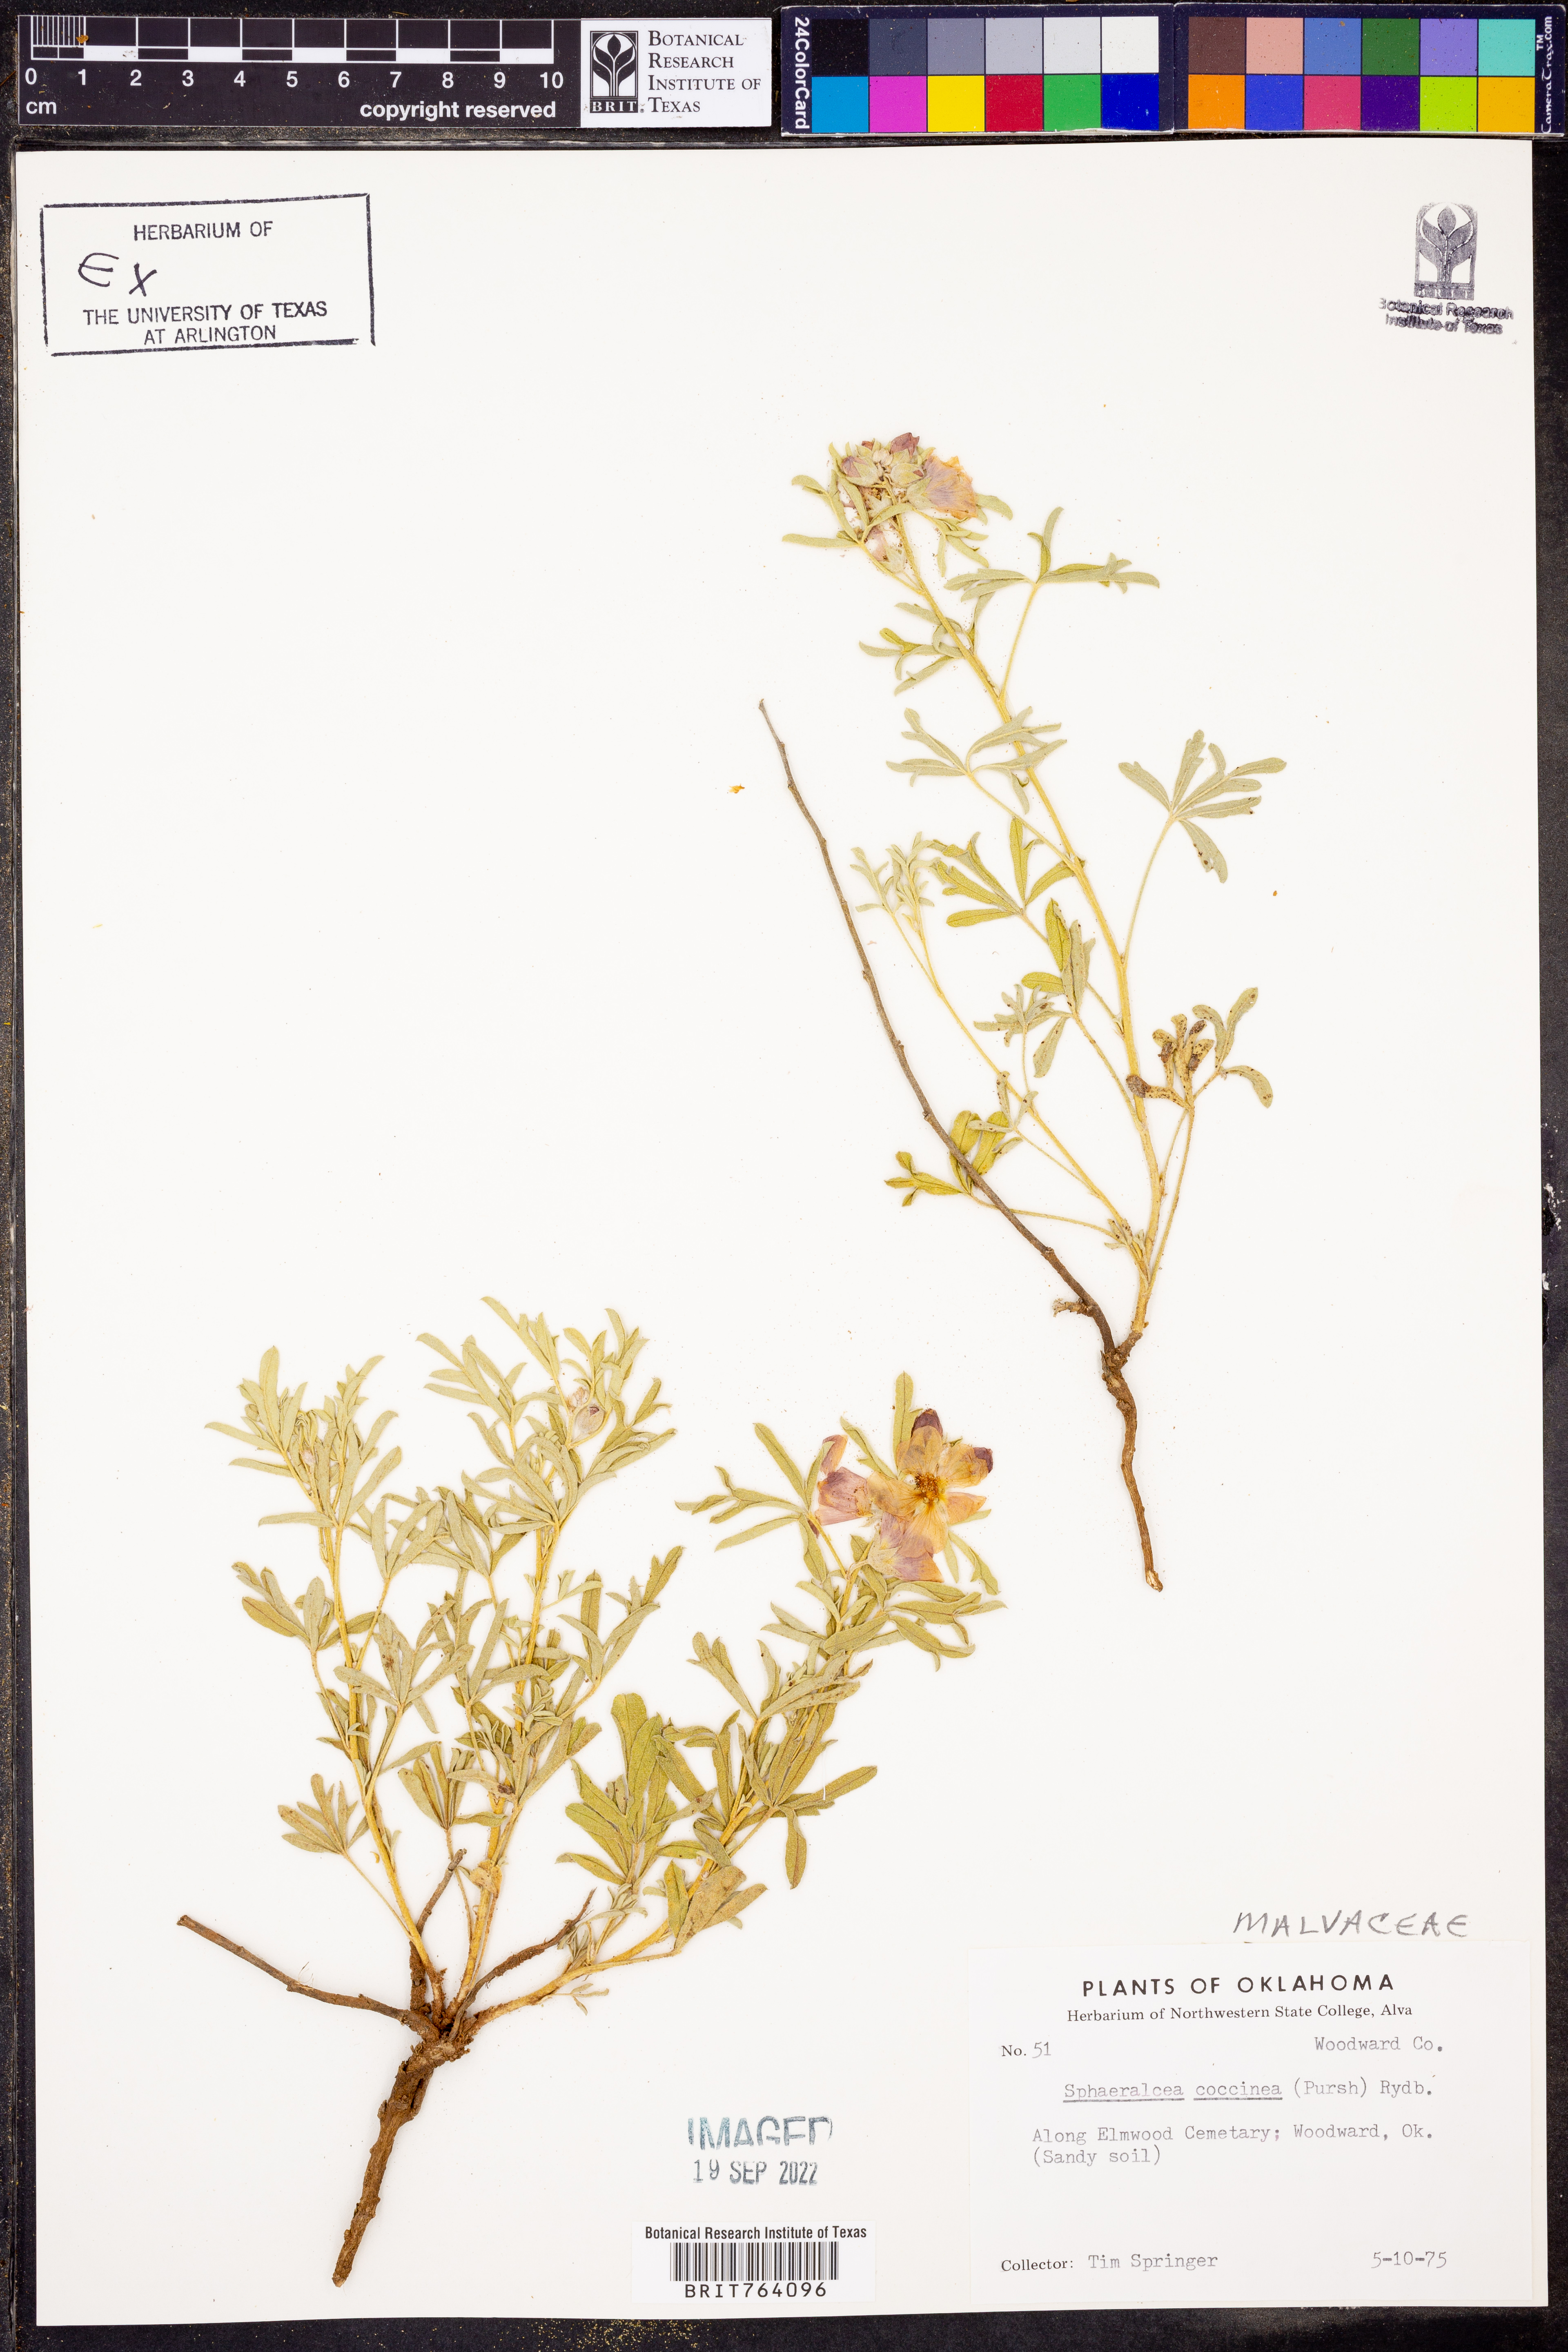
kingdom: Plantae
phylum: Tracheophyta
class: Magnoliopsida
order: Malvales
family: Malvaceae
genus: Sphaeralcea
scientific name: Sphaeralcea coccinea
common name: Moss-rose
